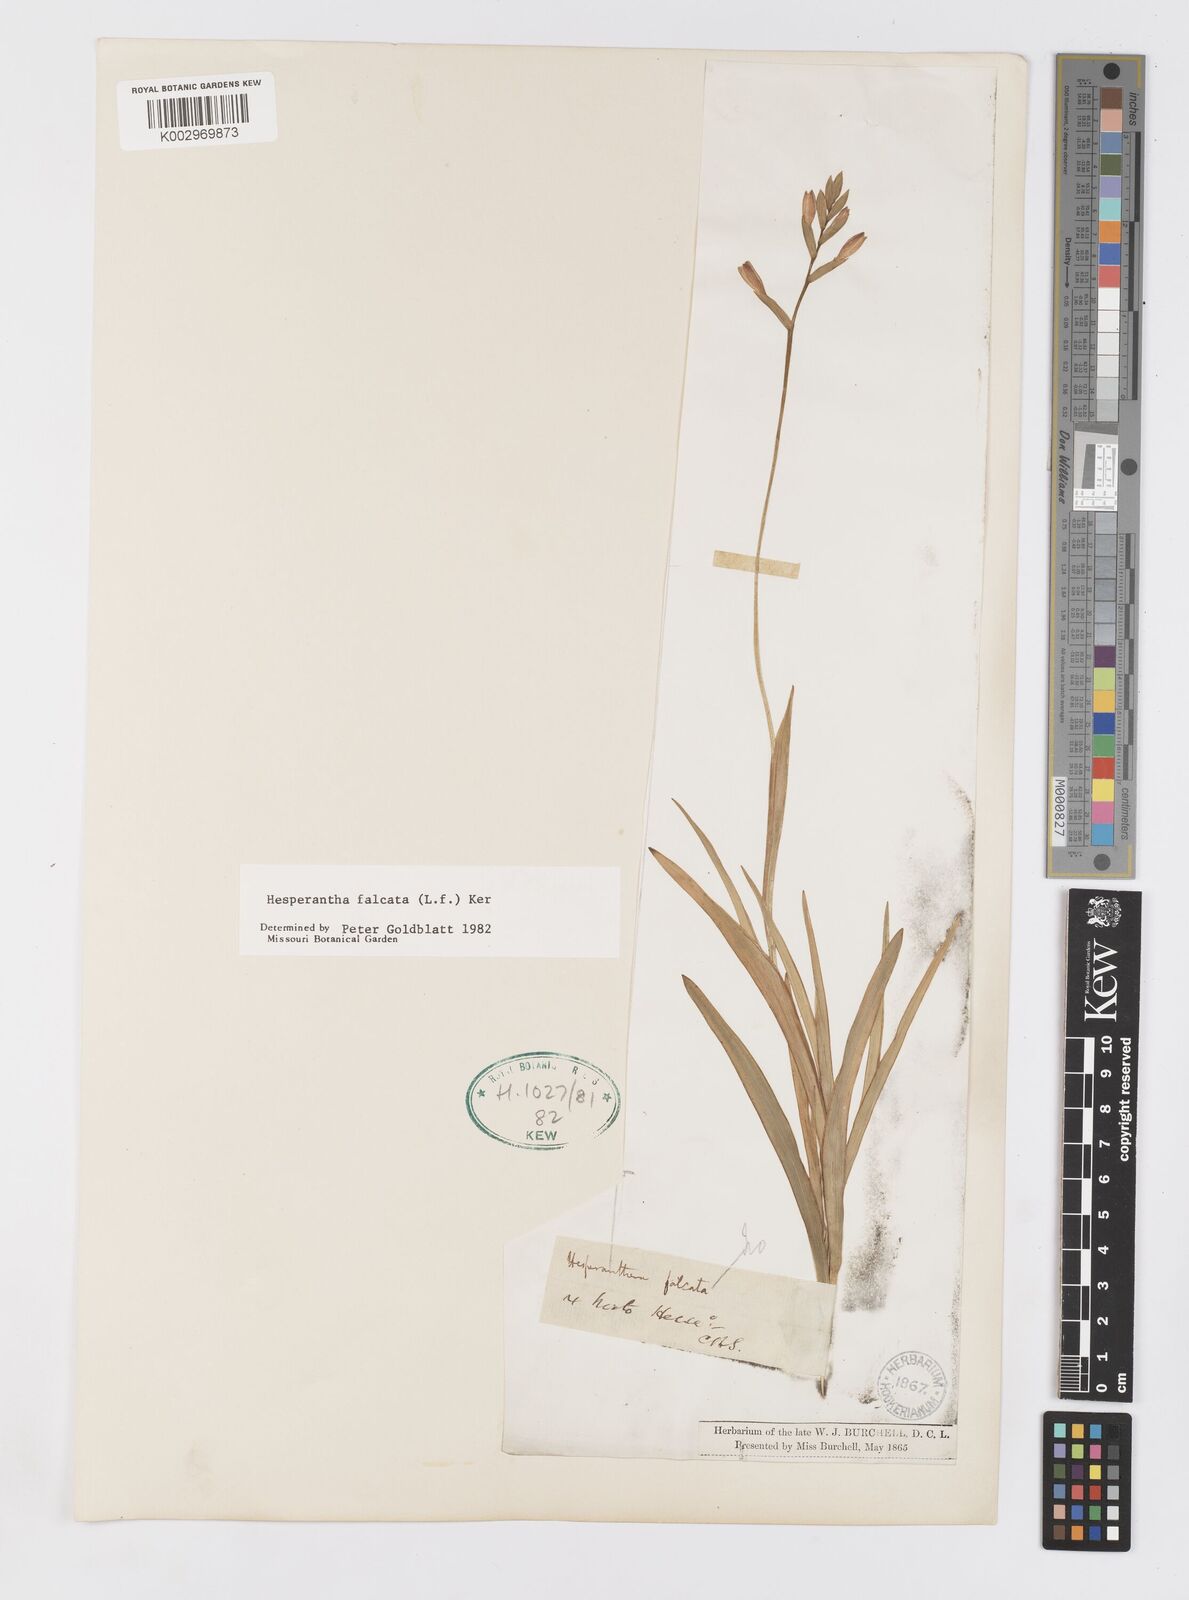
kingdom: Plantae
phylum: Tracheophyta
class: Liliopsida
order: Asparagales
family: Iridaceae
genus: Hesperantha
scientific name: Hesperantha falcata
